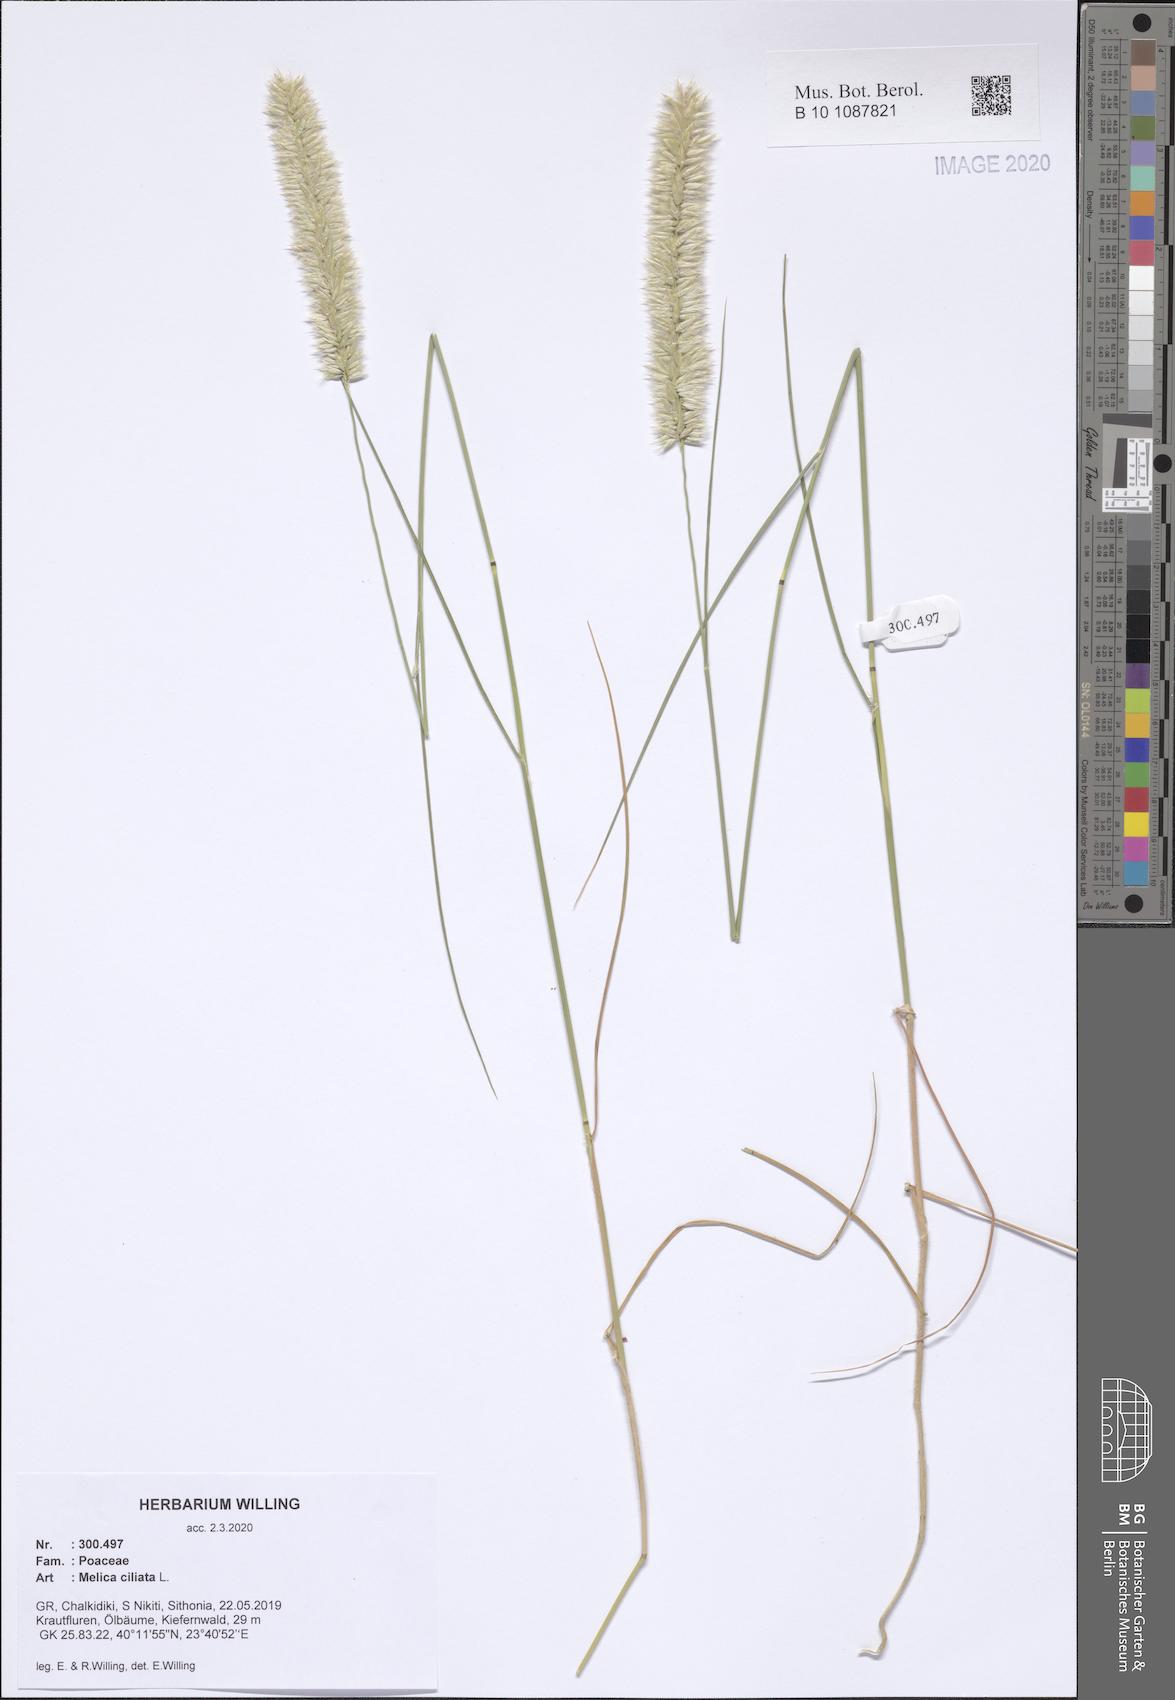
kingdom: Plantae
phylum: Tracheophyta
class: Liliopsida
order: Poales
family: Poaceae
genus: Melica
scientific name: Melica ciliata
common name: Hairy melicgrass
